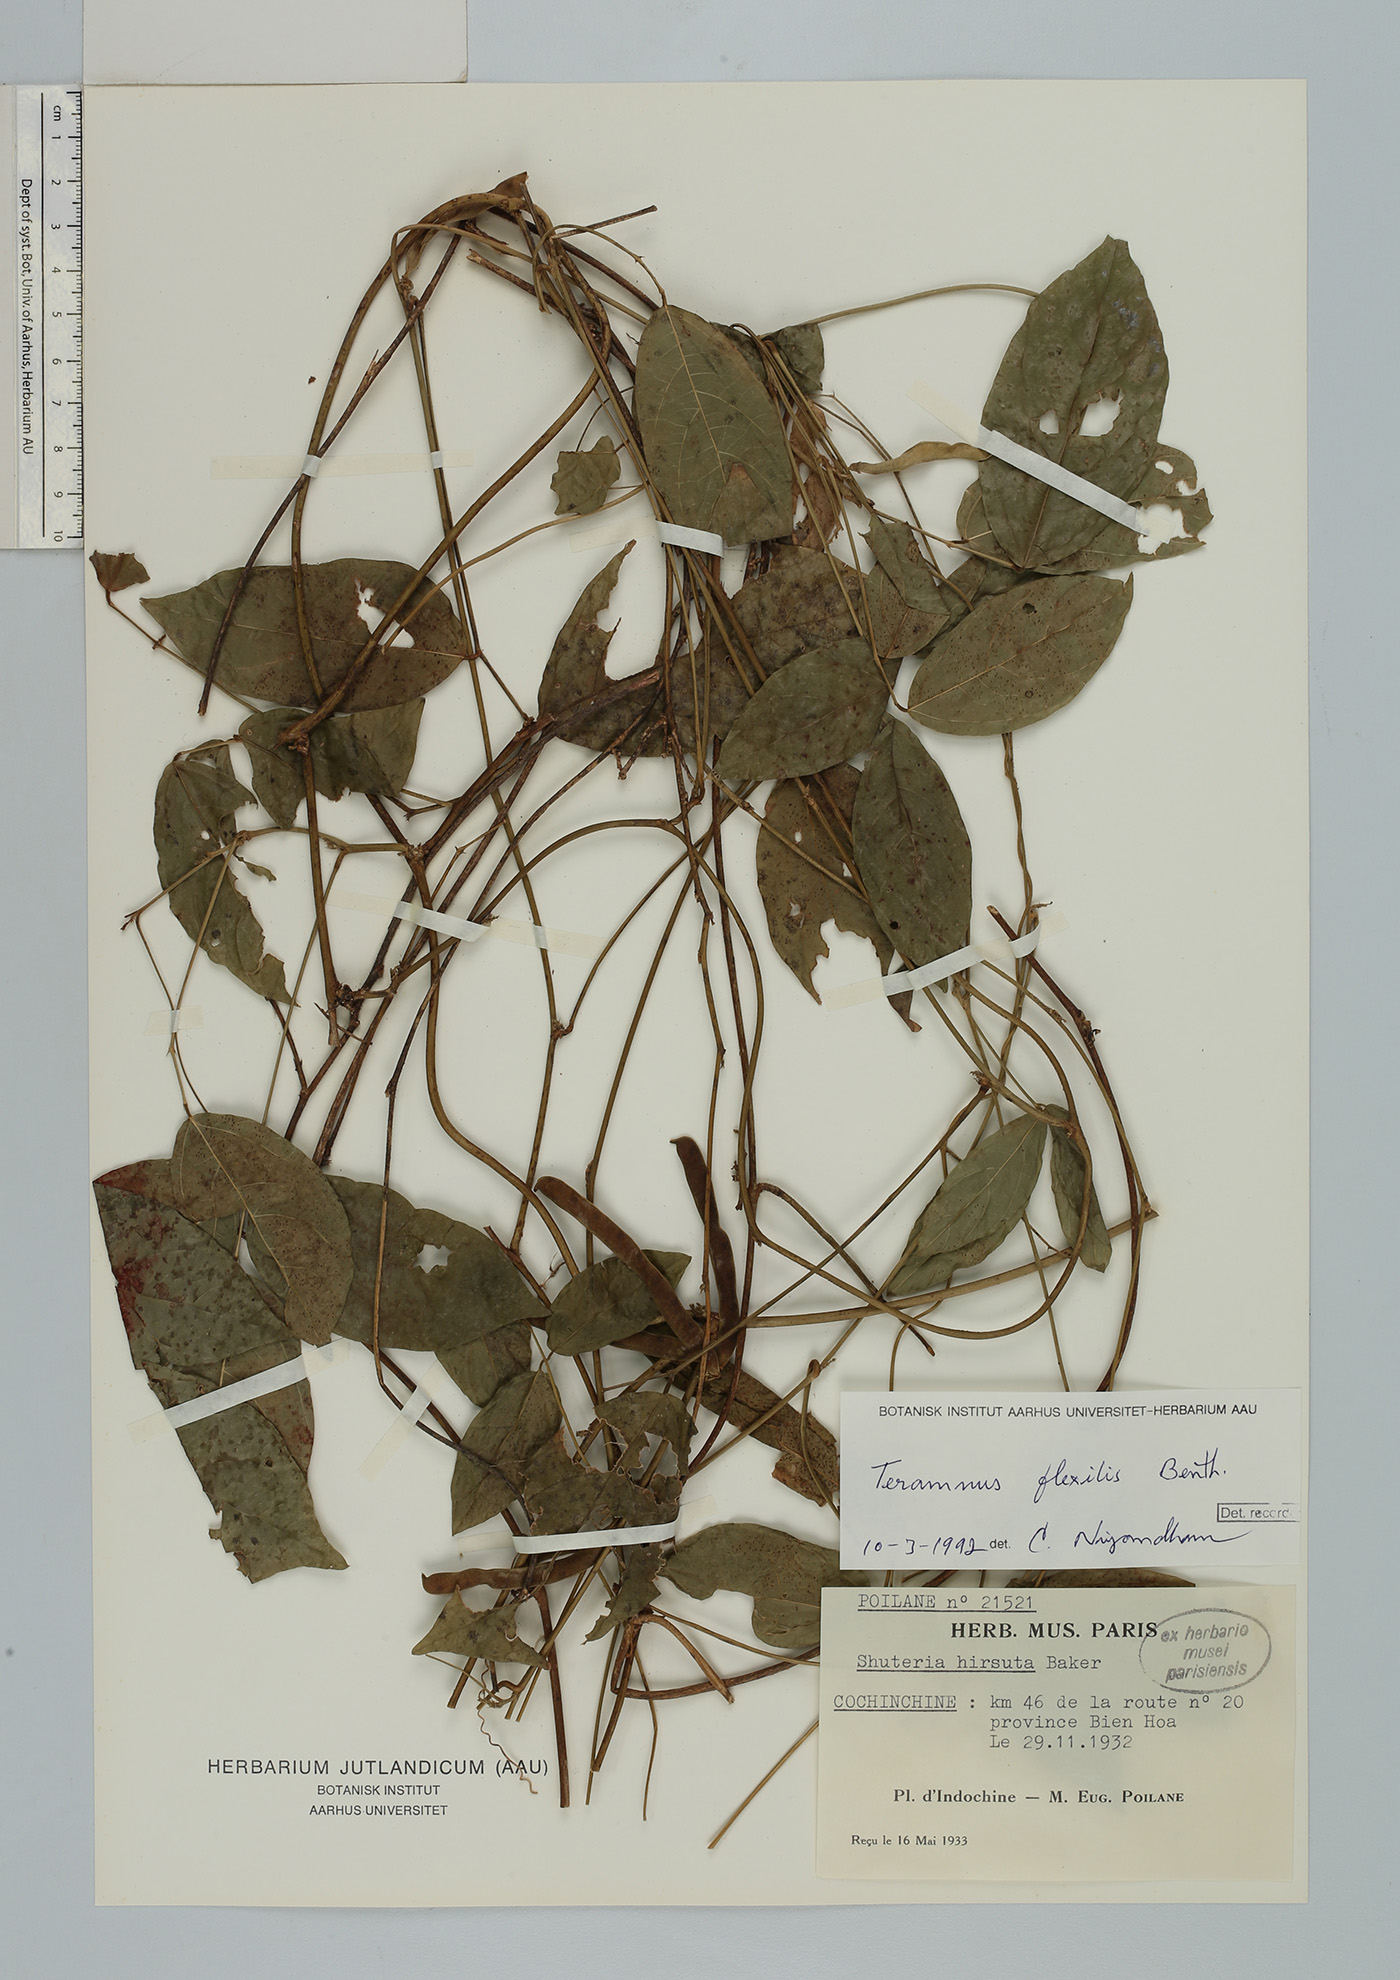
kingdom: Plantae
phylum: Tracheophyta
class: Magnoliopsida
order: Fabales
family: Fabaceae
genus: Teramnus
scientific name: Teramnus flexilis
